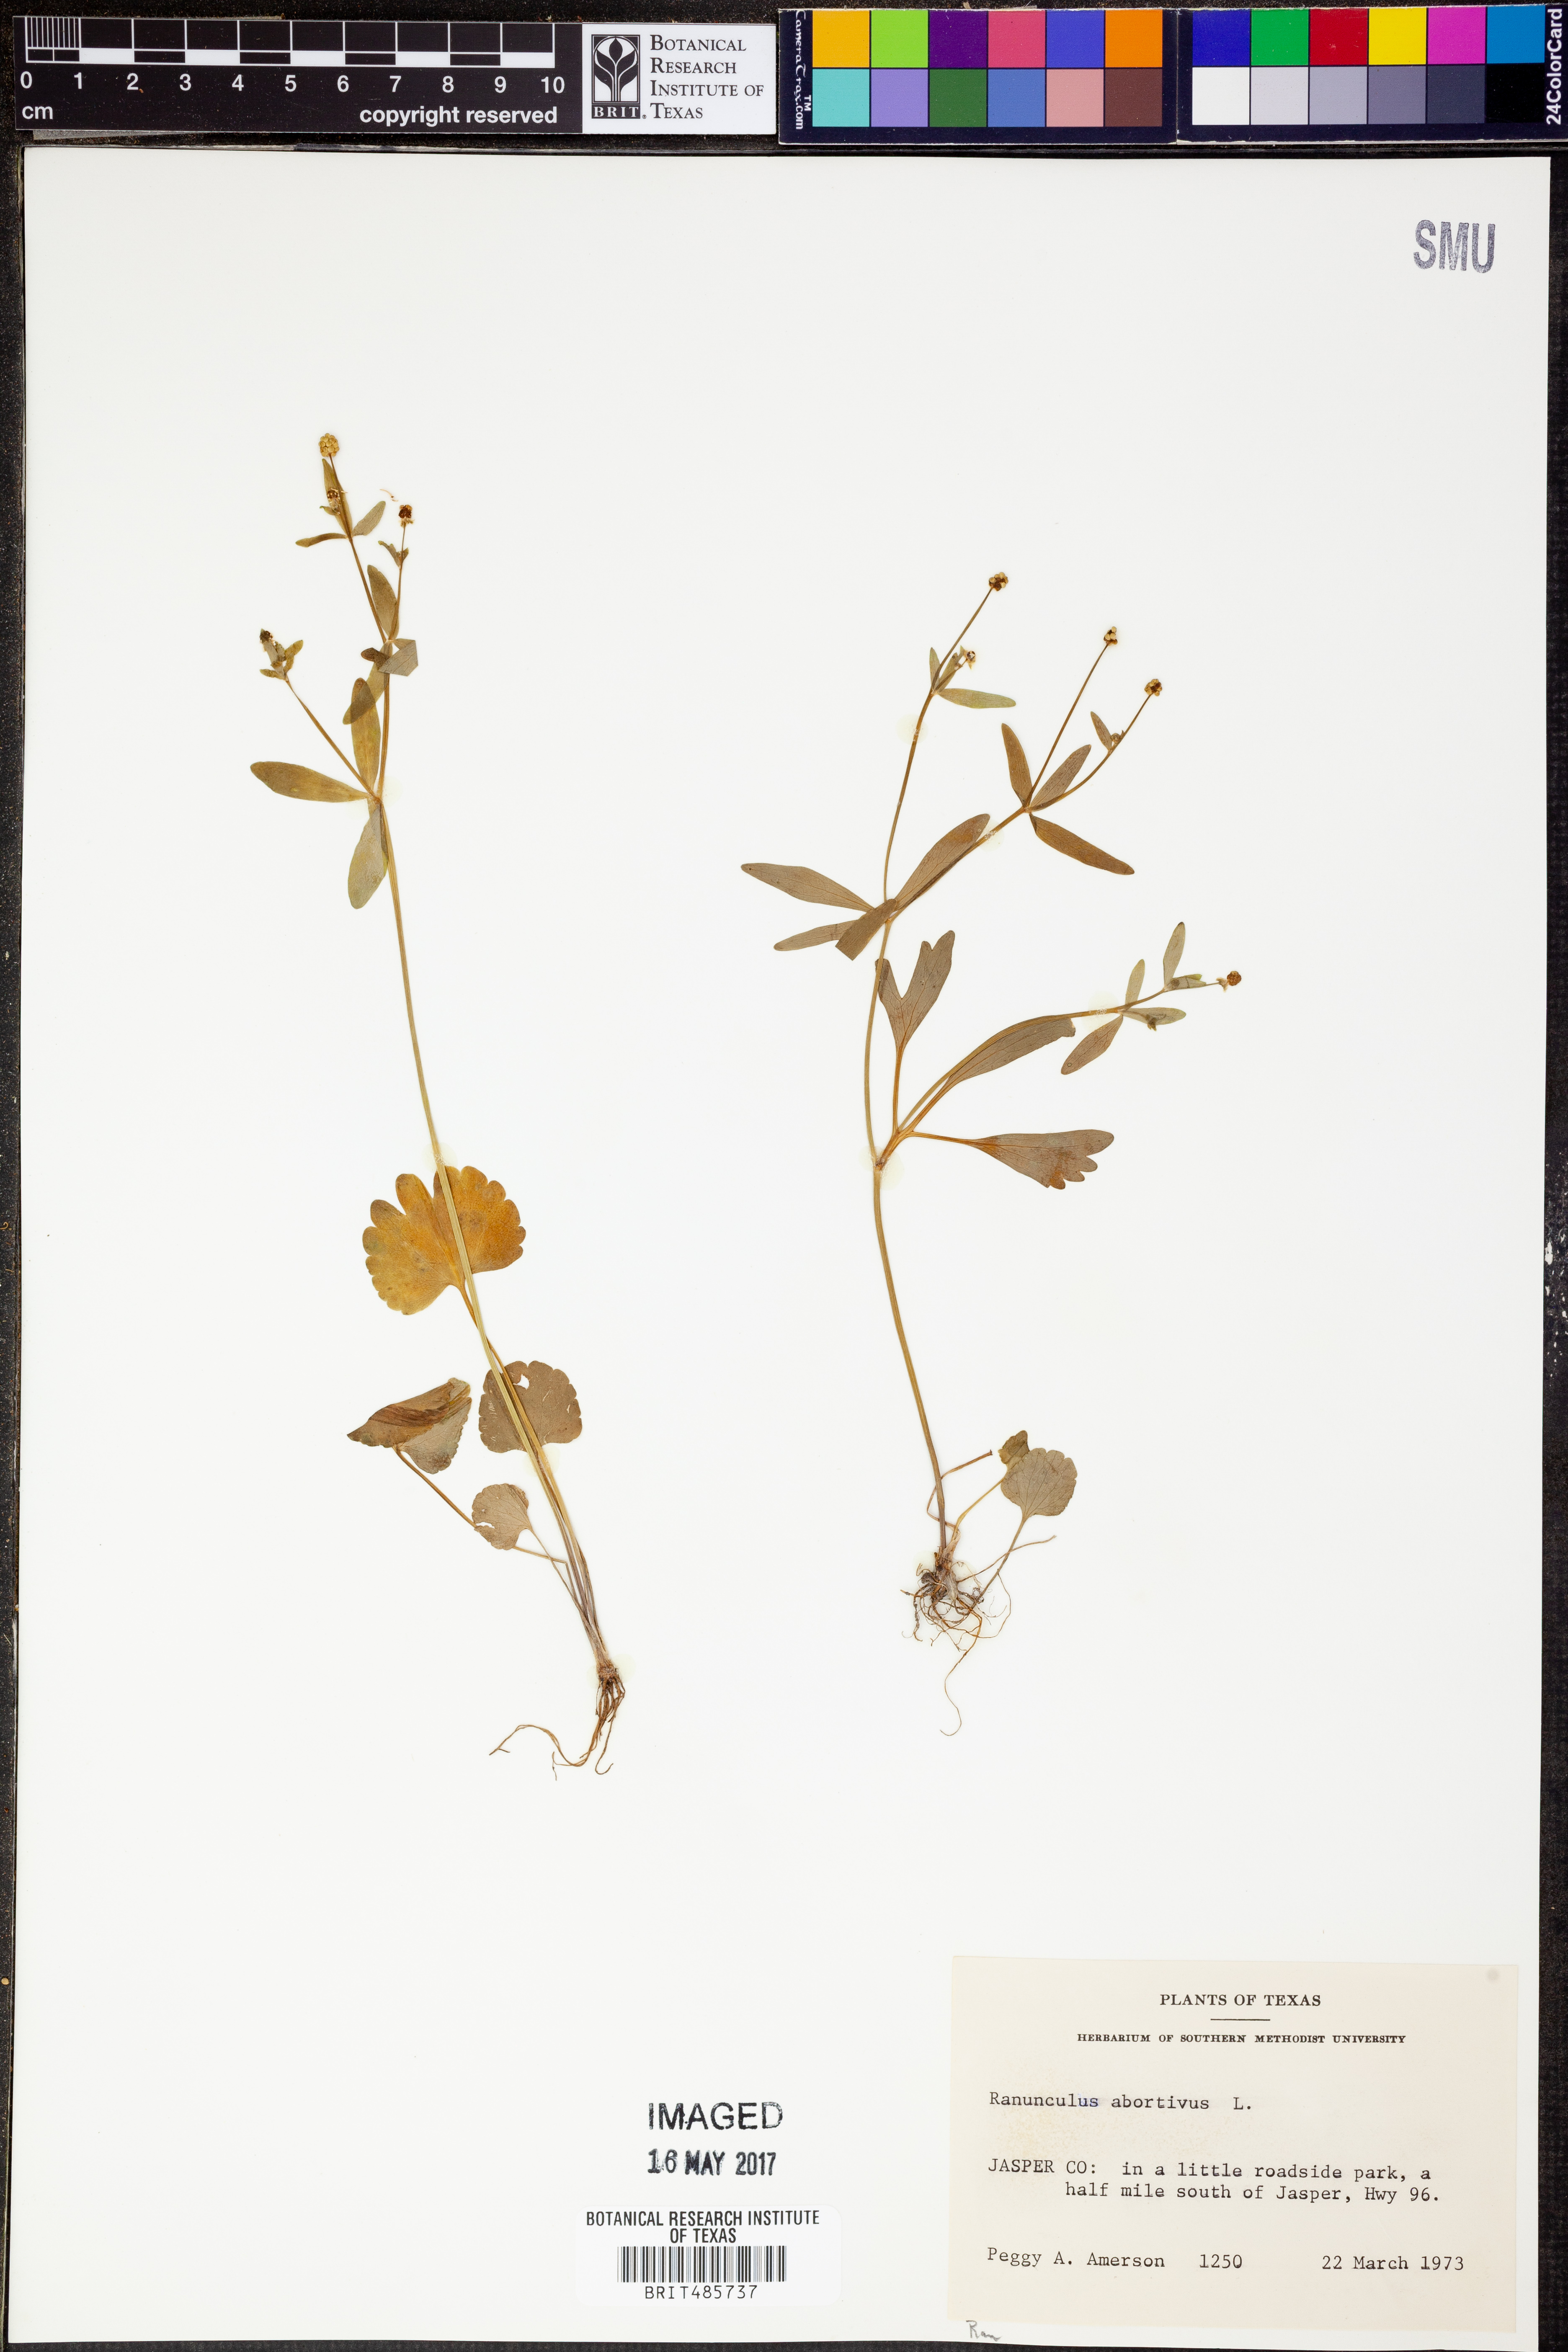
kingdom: Plantae
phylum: Tracheophyta
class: Magnoliopsida
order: Ranunculales
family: Ranunculaceae
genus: Ranunculus
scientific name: Ranunculus abortivus
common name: Early wood buttercup
